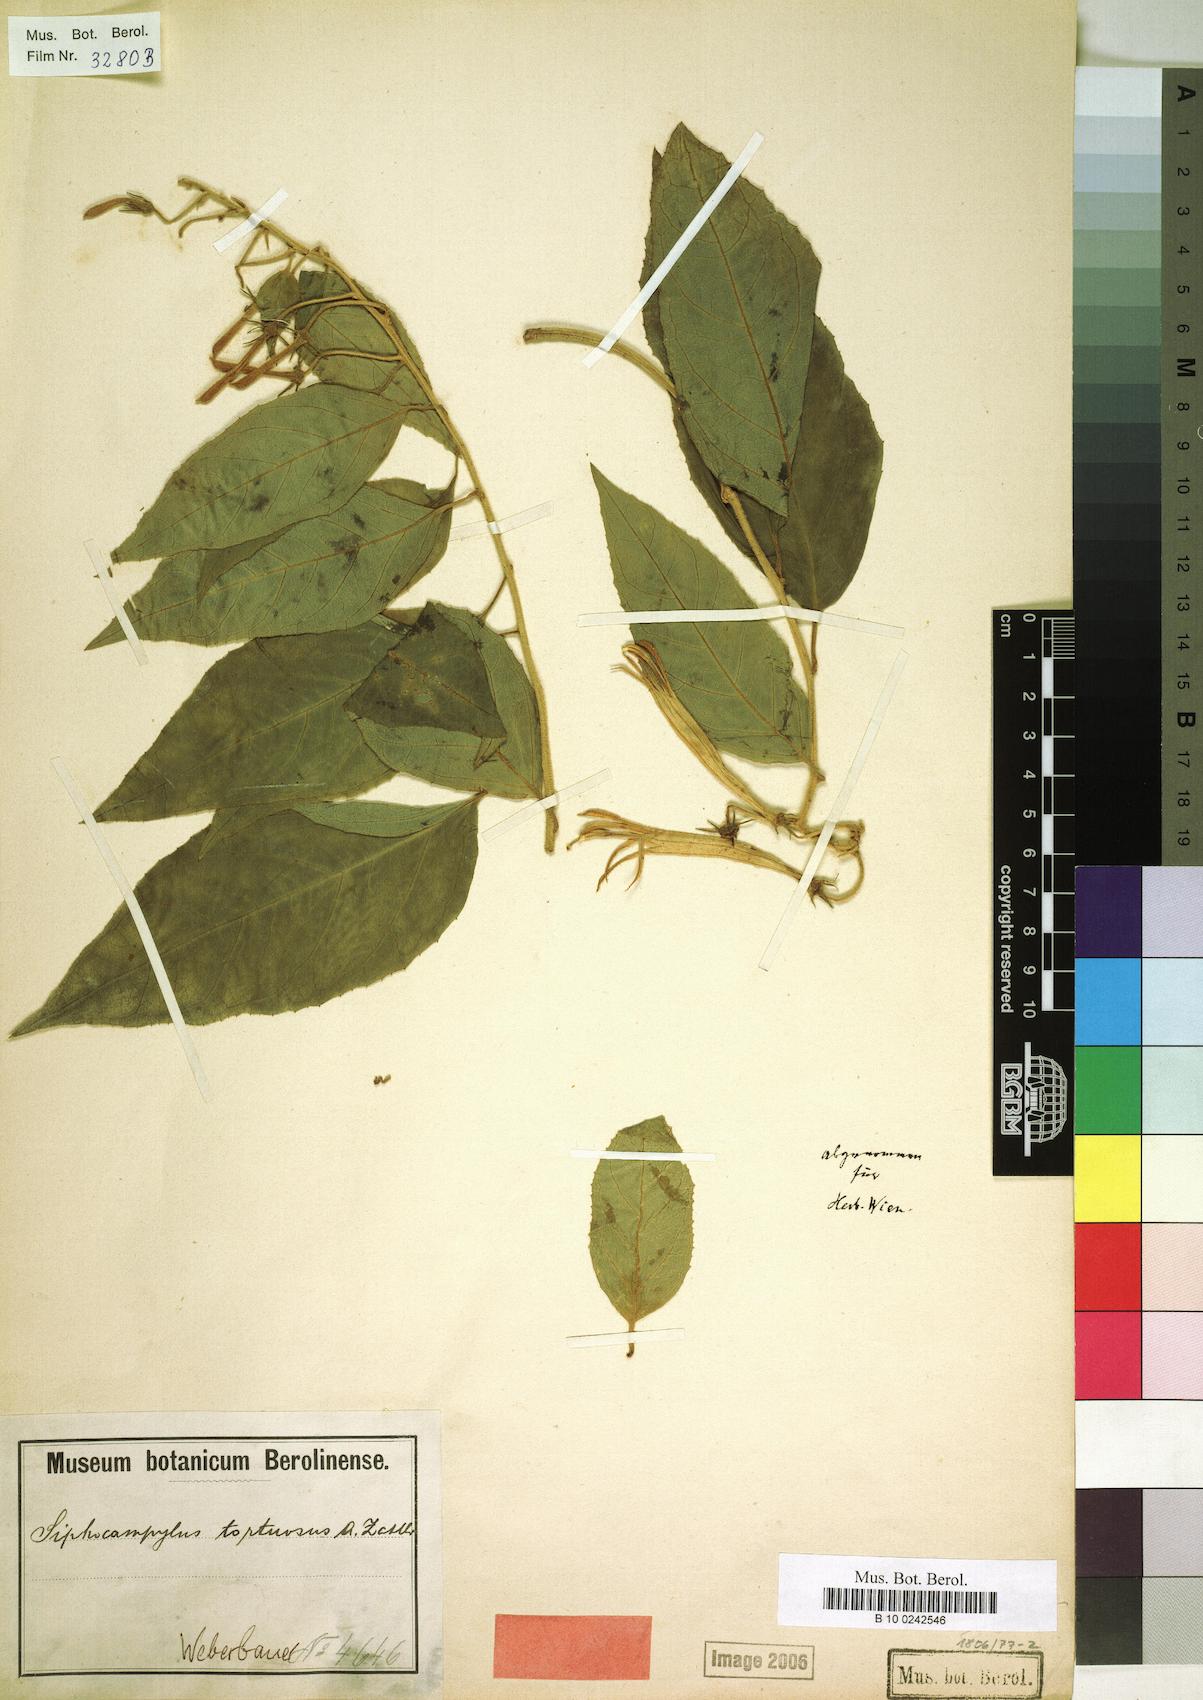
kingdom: Plantae
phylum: Tracheophyta
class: Magnoliopsida
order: Asterales
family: Campanulaceae
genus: Siphocampylus
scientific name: Siphocampylus tortuosus
